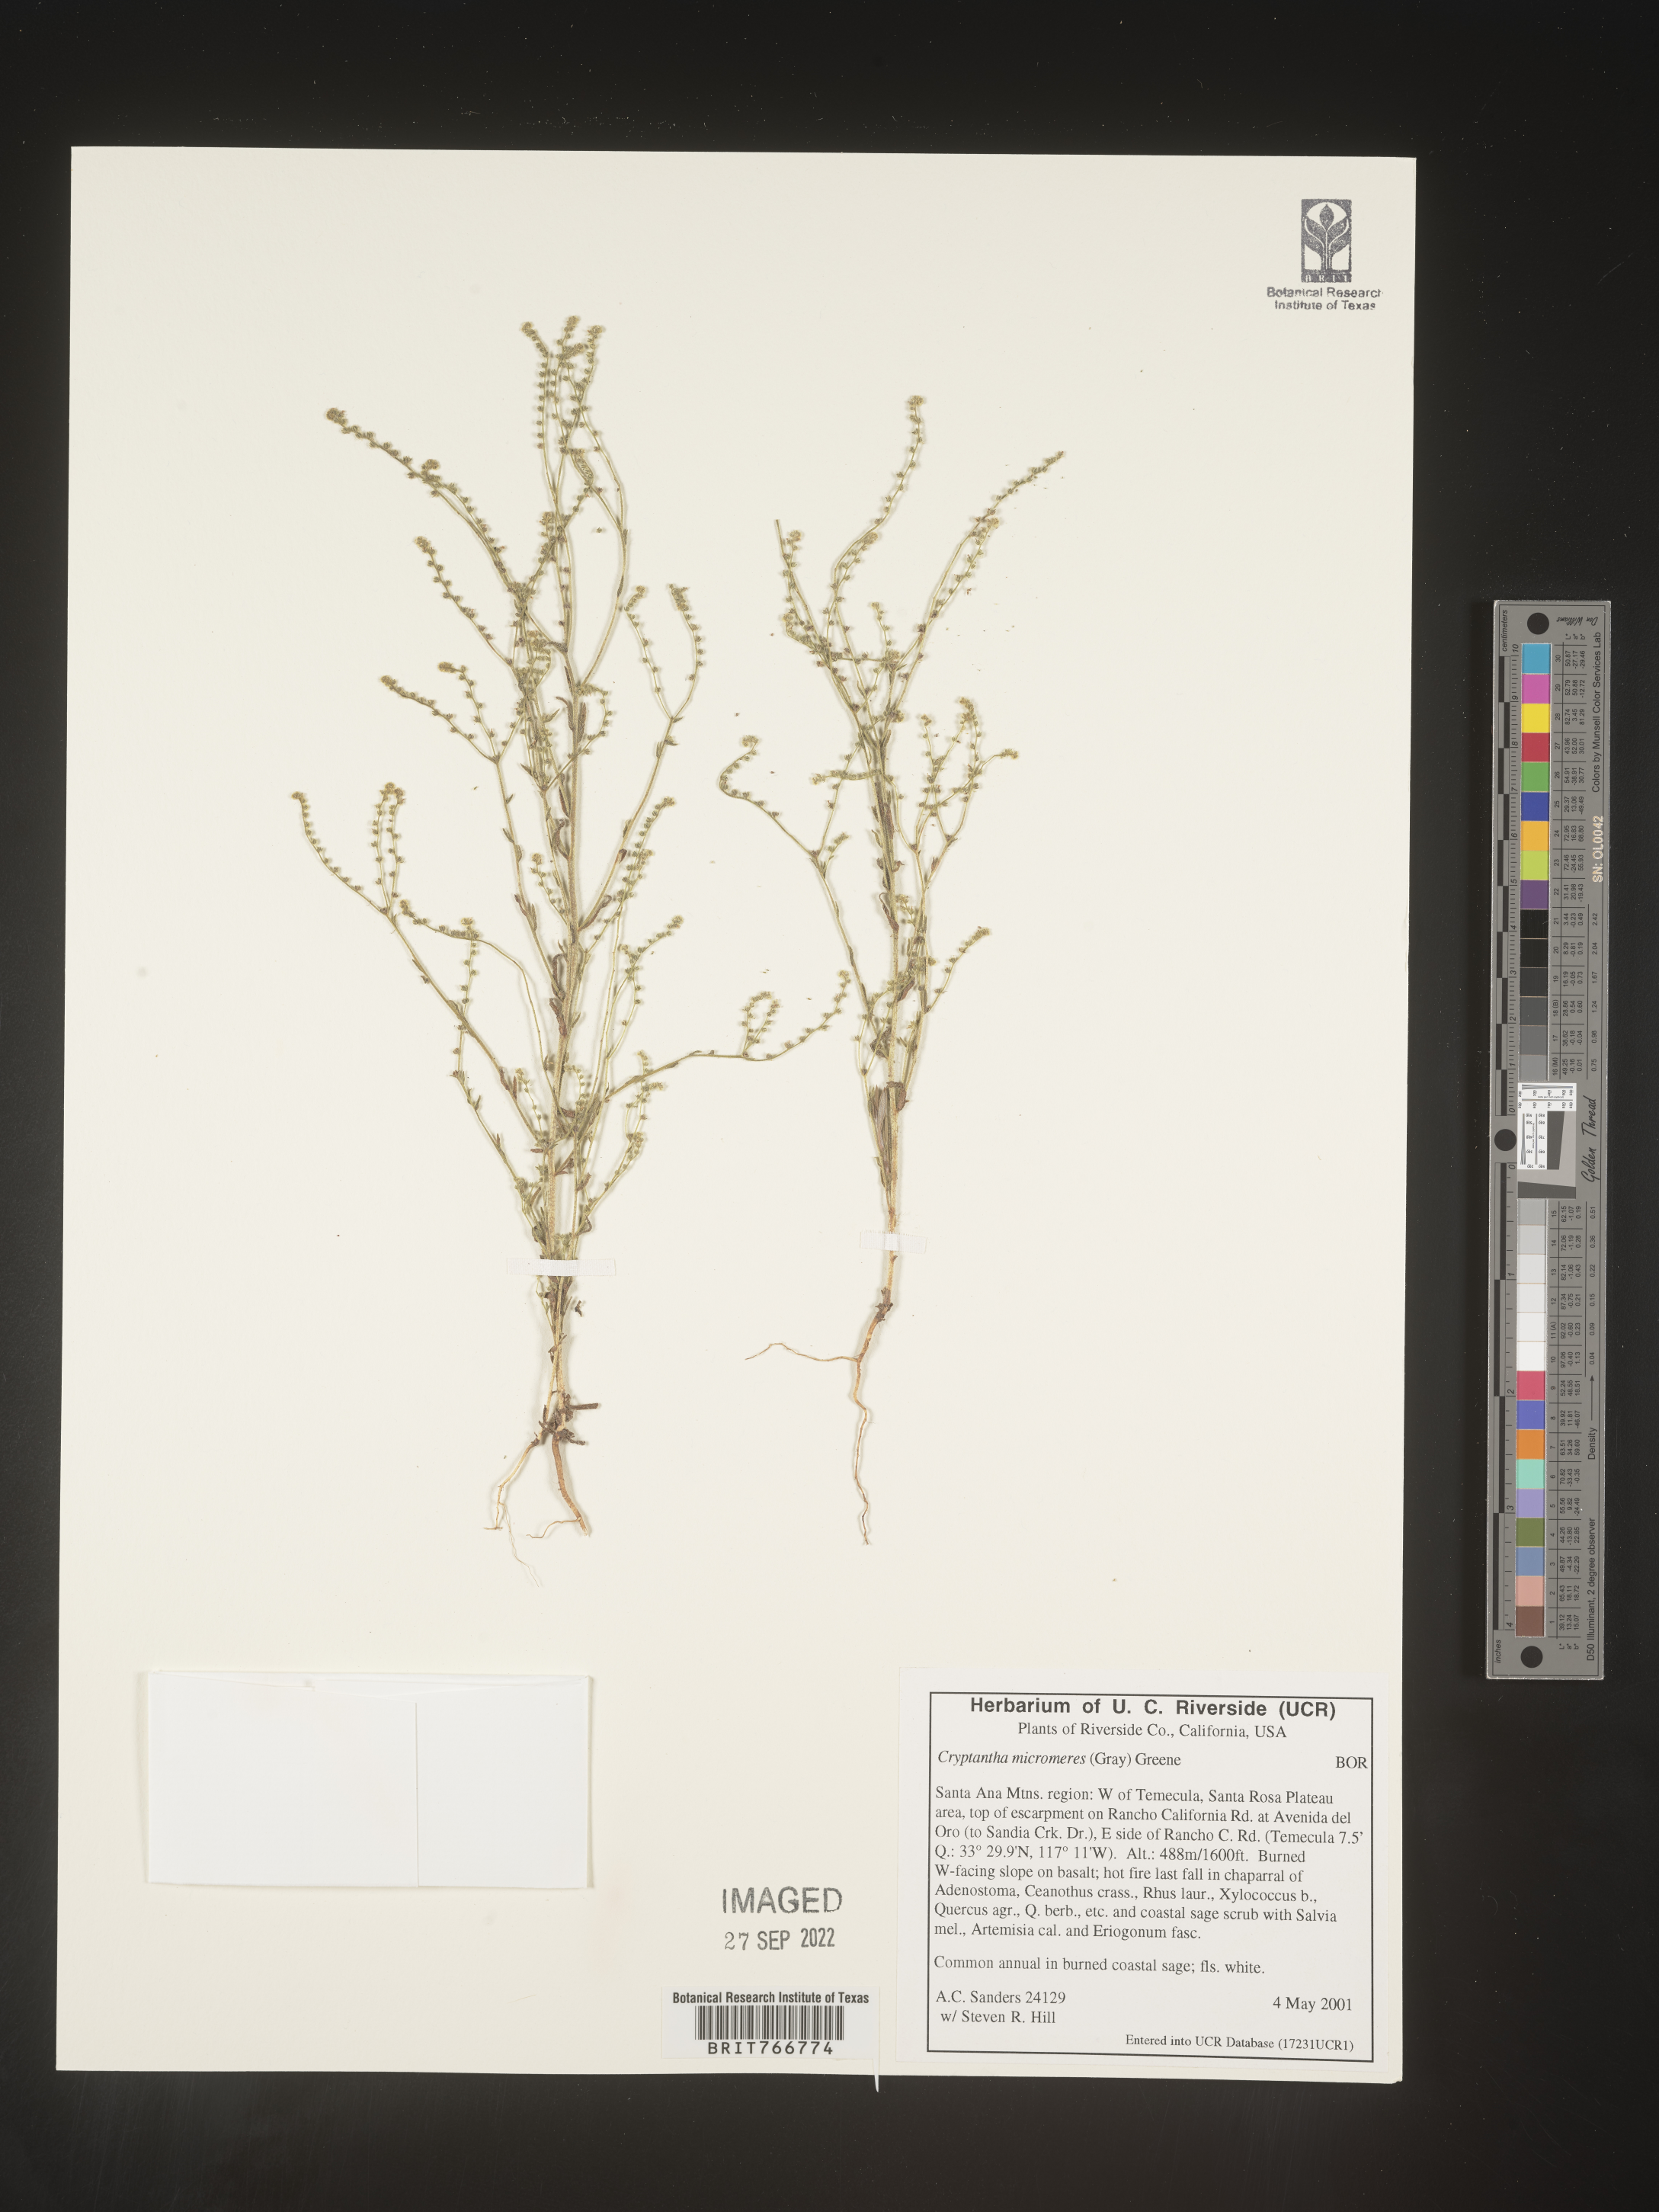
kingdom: Plantae
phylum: Tracheophyta
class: Magnoliopsida
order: Boraginales
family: Boraginaceae
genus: Cryptantha
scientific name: Cryptantha
